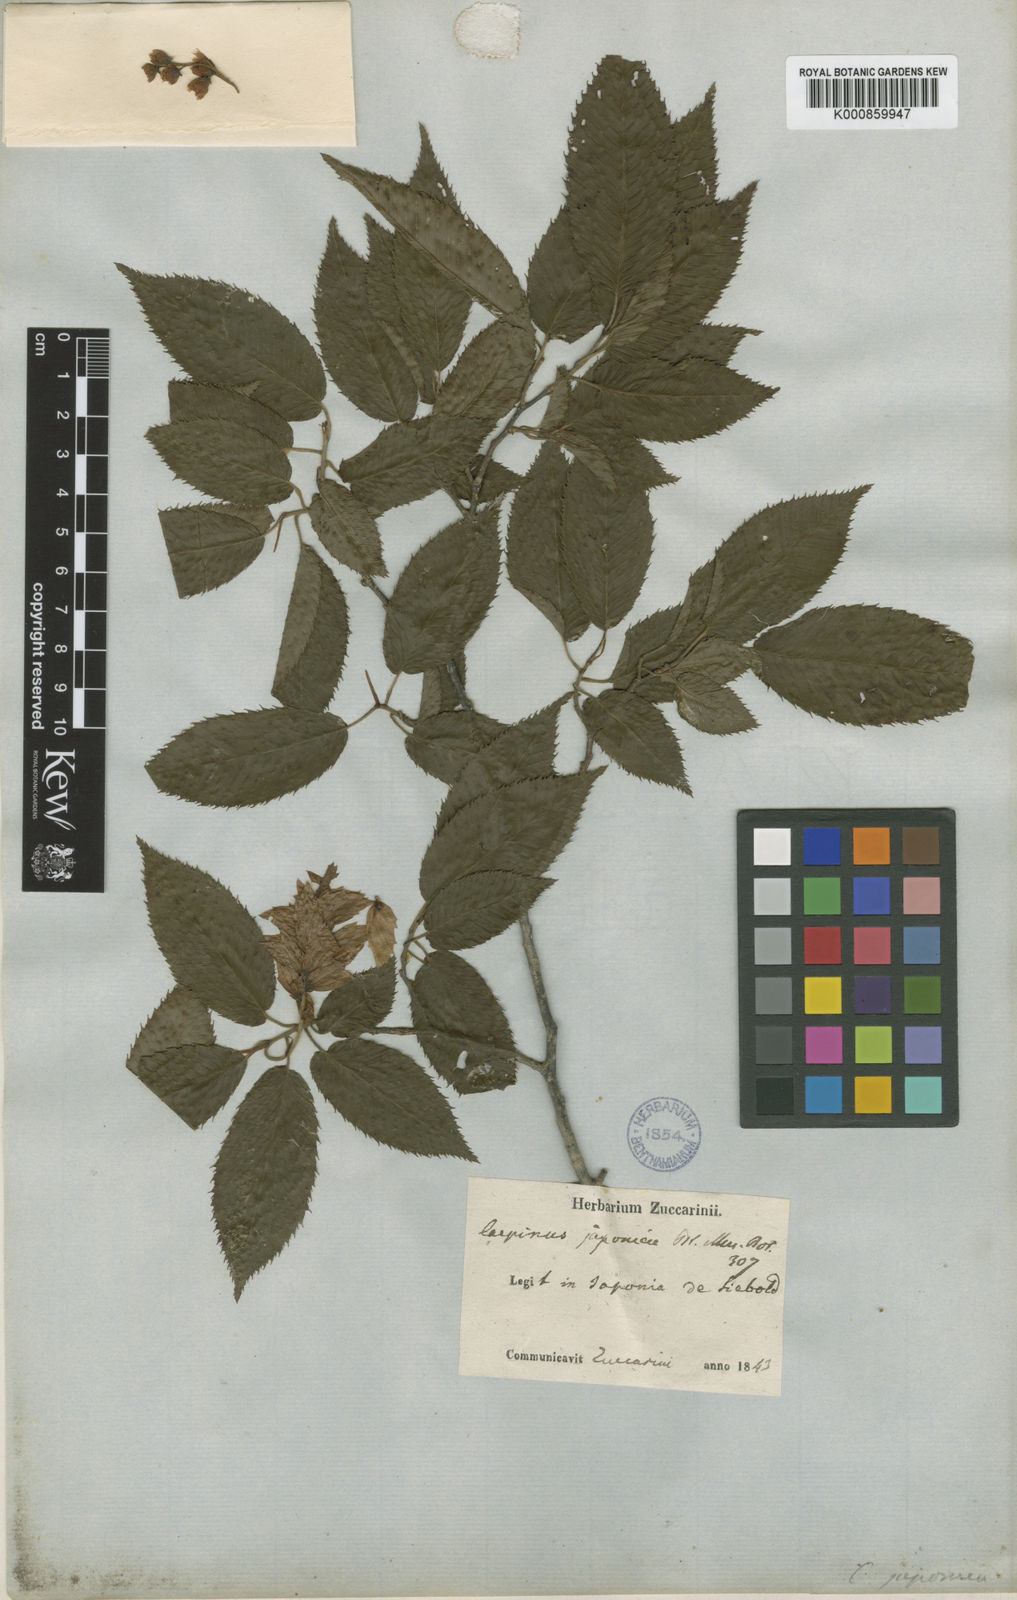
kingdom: Plantae
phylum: Tracheophyta
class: Magnoliopsida
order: Fagales
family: Betulaceae
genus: Carpinus
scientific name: Carpinus japonica
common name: Japanese hornbeam
